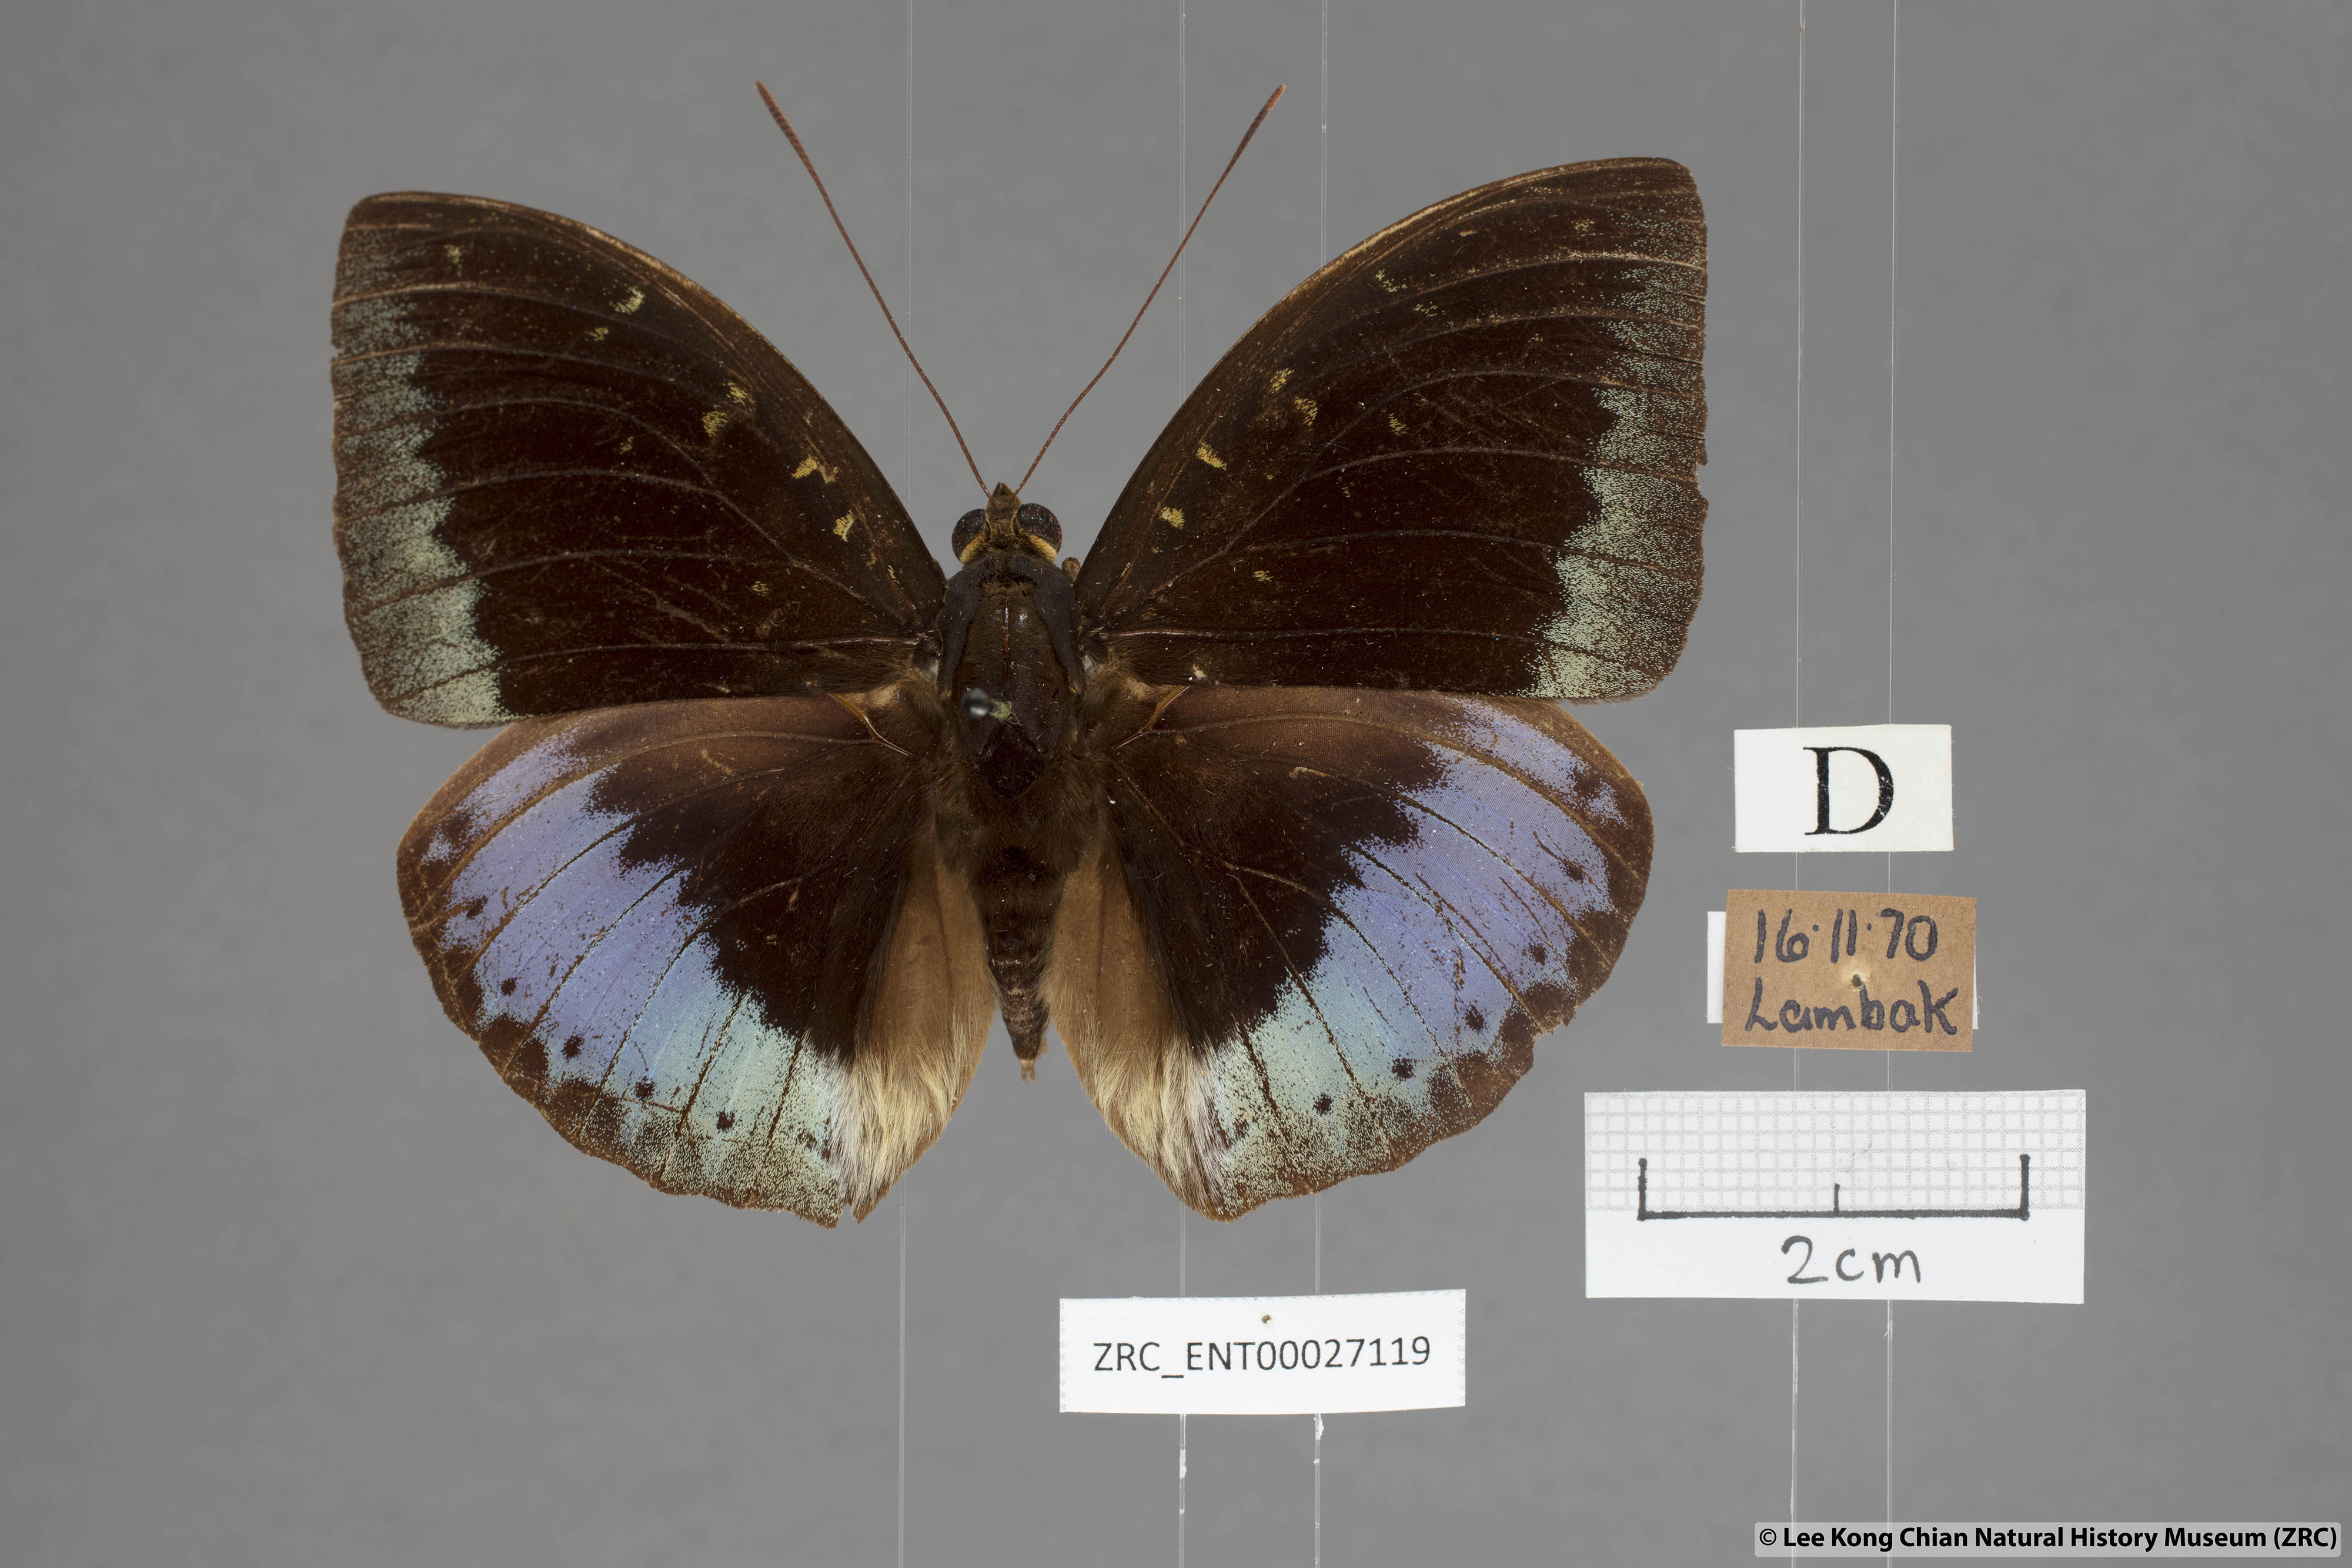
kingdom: Animalia
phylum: Arthropoda
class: Insecta
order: Lepidoptera
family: Nymphalidae
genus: Lexias
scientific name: Lexias pardalis
